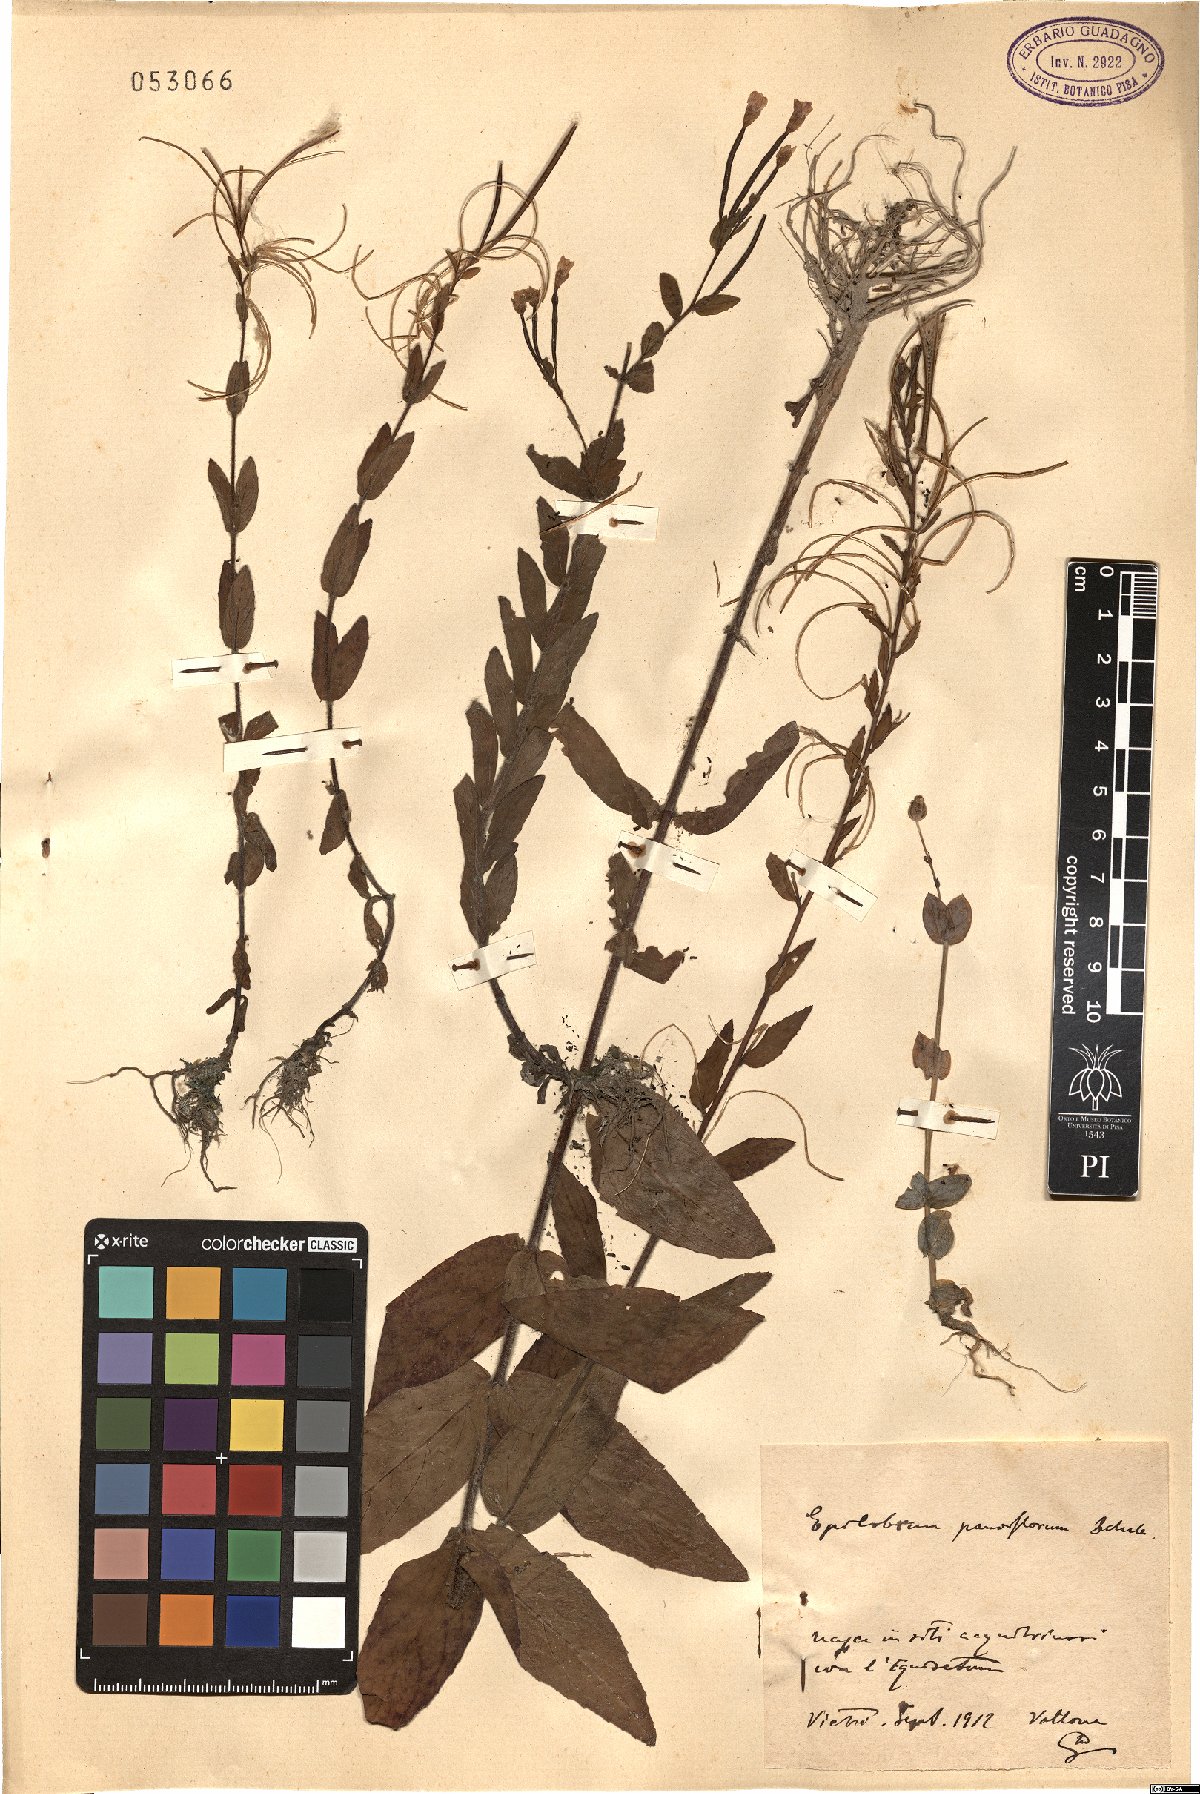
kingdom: Plantae
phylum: Tracheophyta
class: Magnoliopsida
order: Myrtales
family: Onagraceae
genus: Epilobium
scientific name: Epilobium parviflorum
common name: Hoary willowherb
